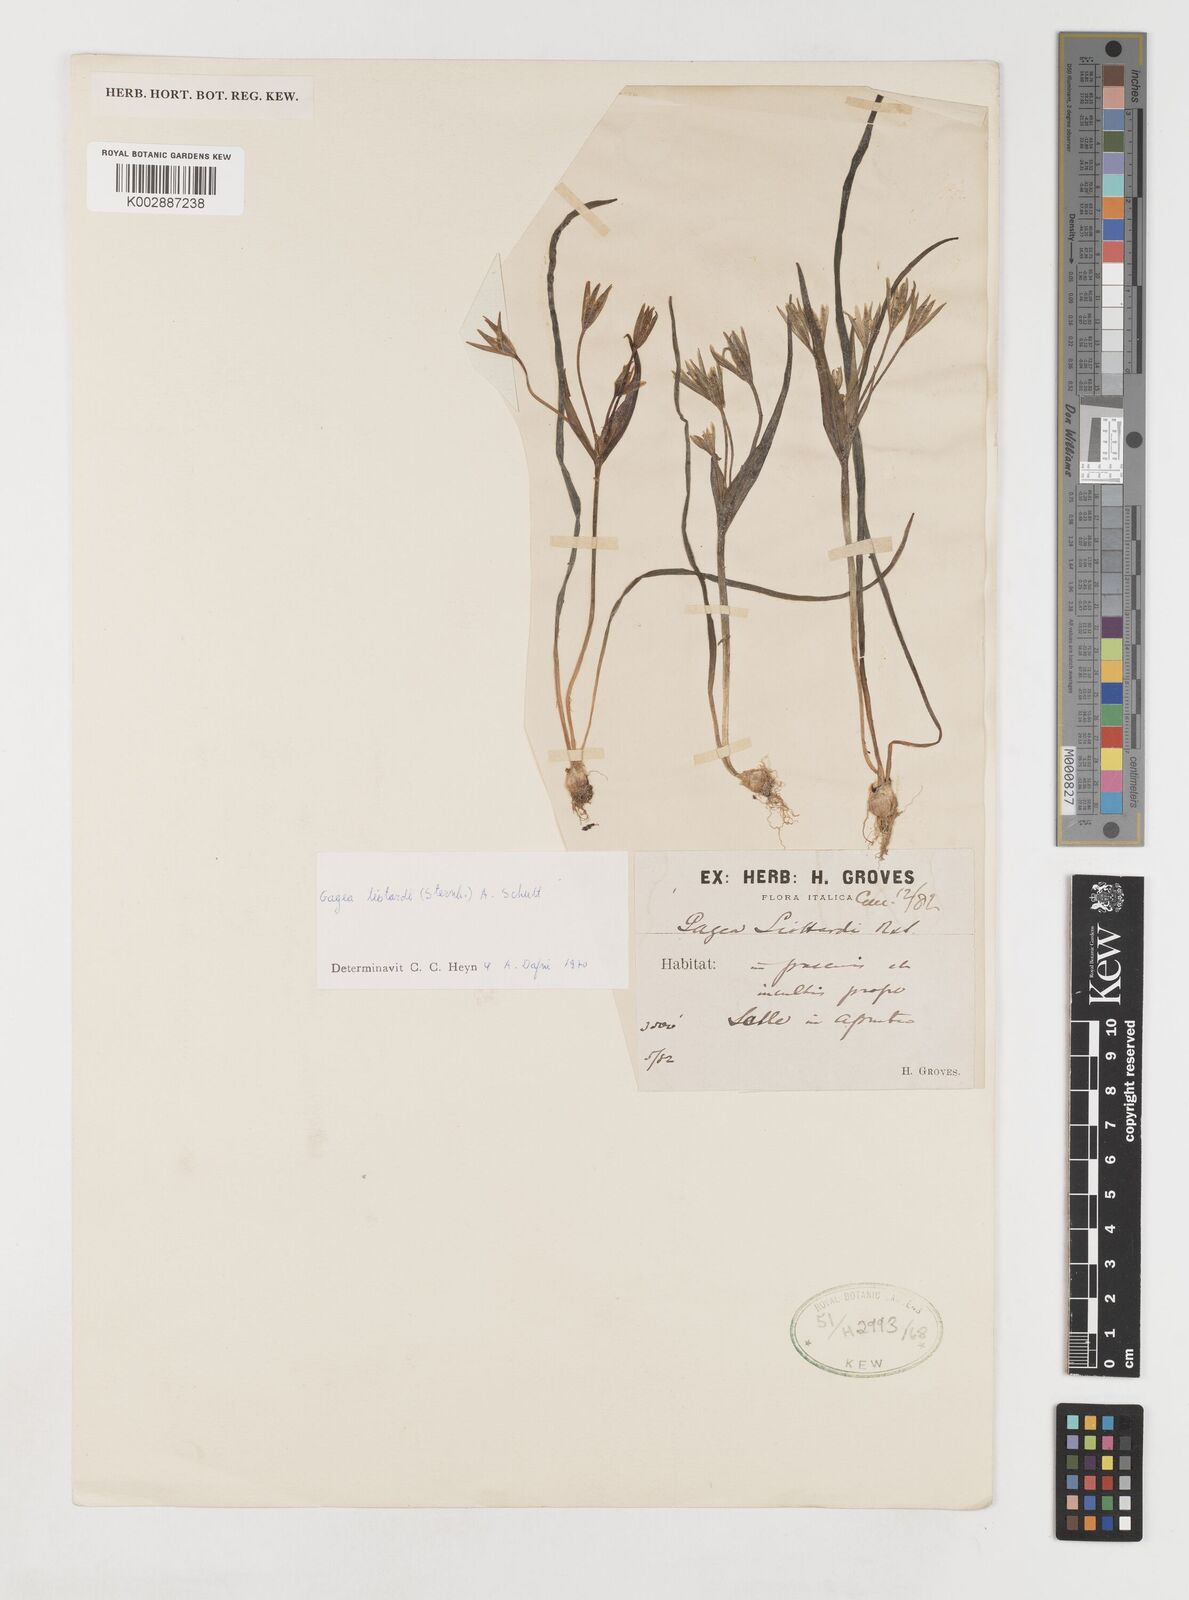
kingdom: Plantae
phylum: Tracheophyta
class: Liliopsida
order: Liliales
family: Liliaceae
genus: Gagea
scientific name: Gagea bohemica
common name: Early star-of-bethlehem
